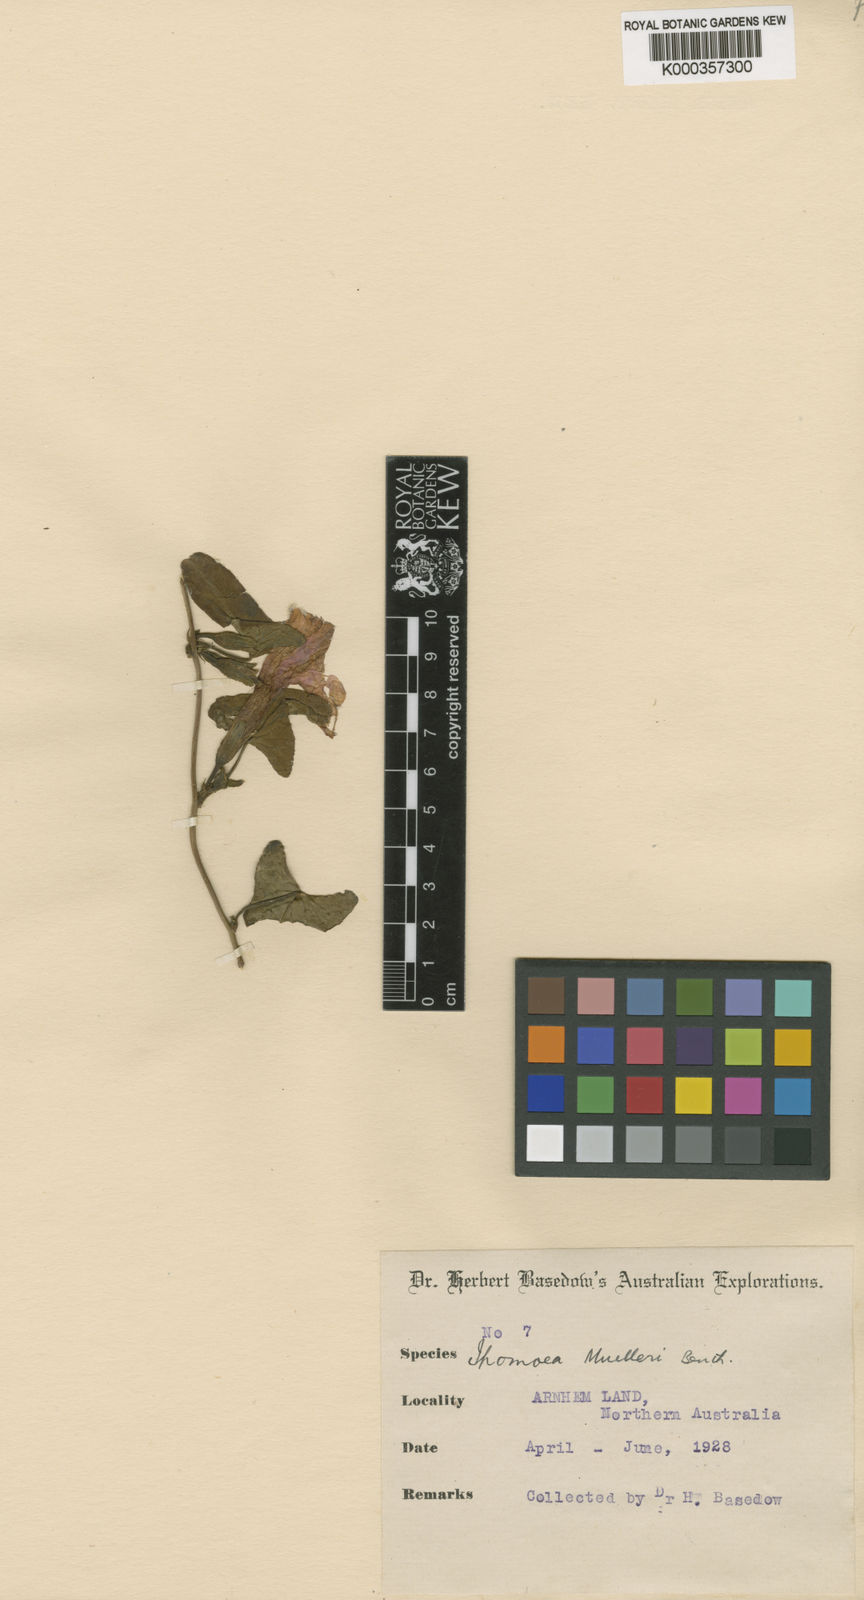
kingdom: Plantae
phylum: Tracheophyta
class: Magnoliopsida
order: Solanales
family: Convolvulaceae
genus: Ipomoea
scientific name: Ipomoea muelleri
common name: Poison morning-glory
